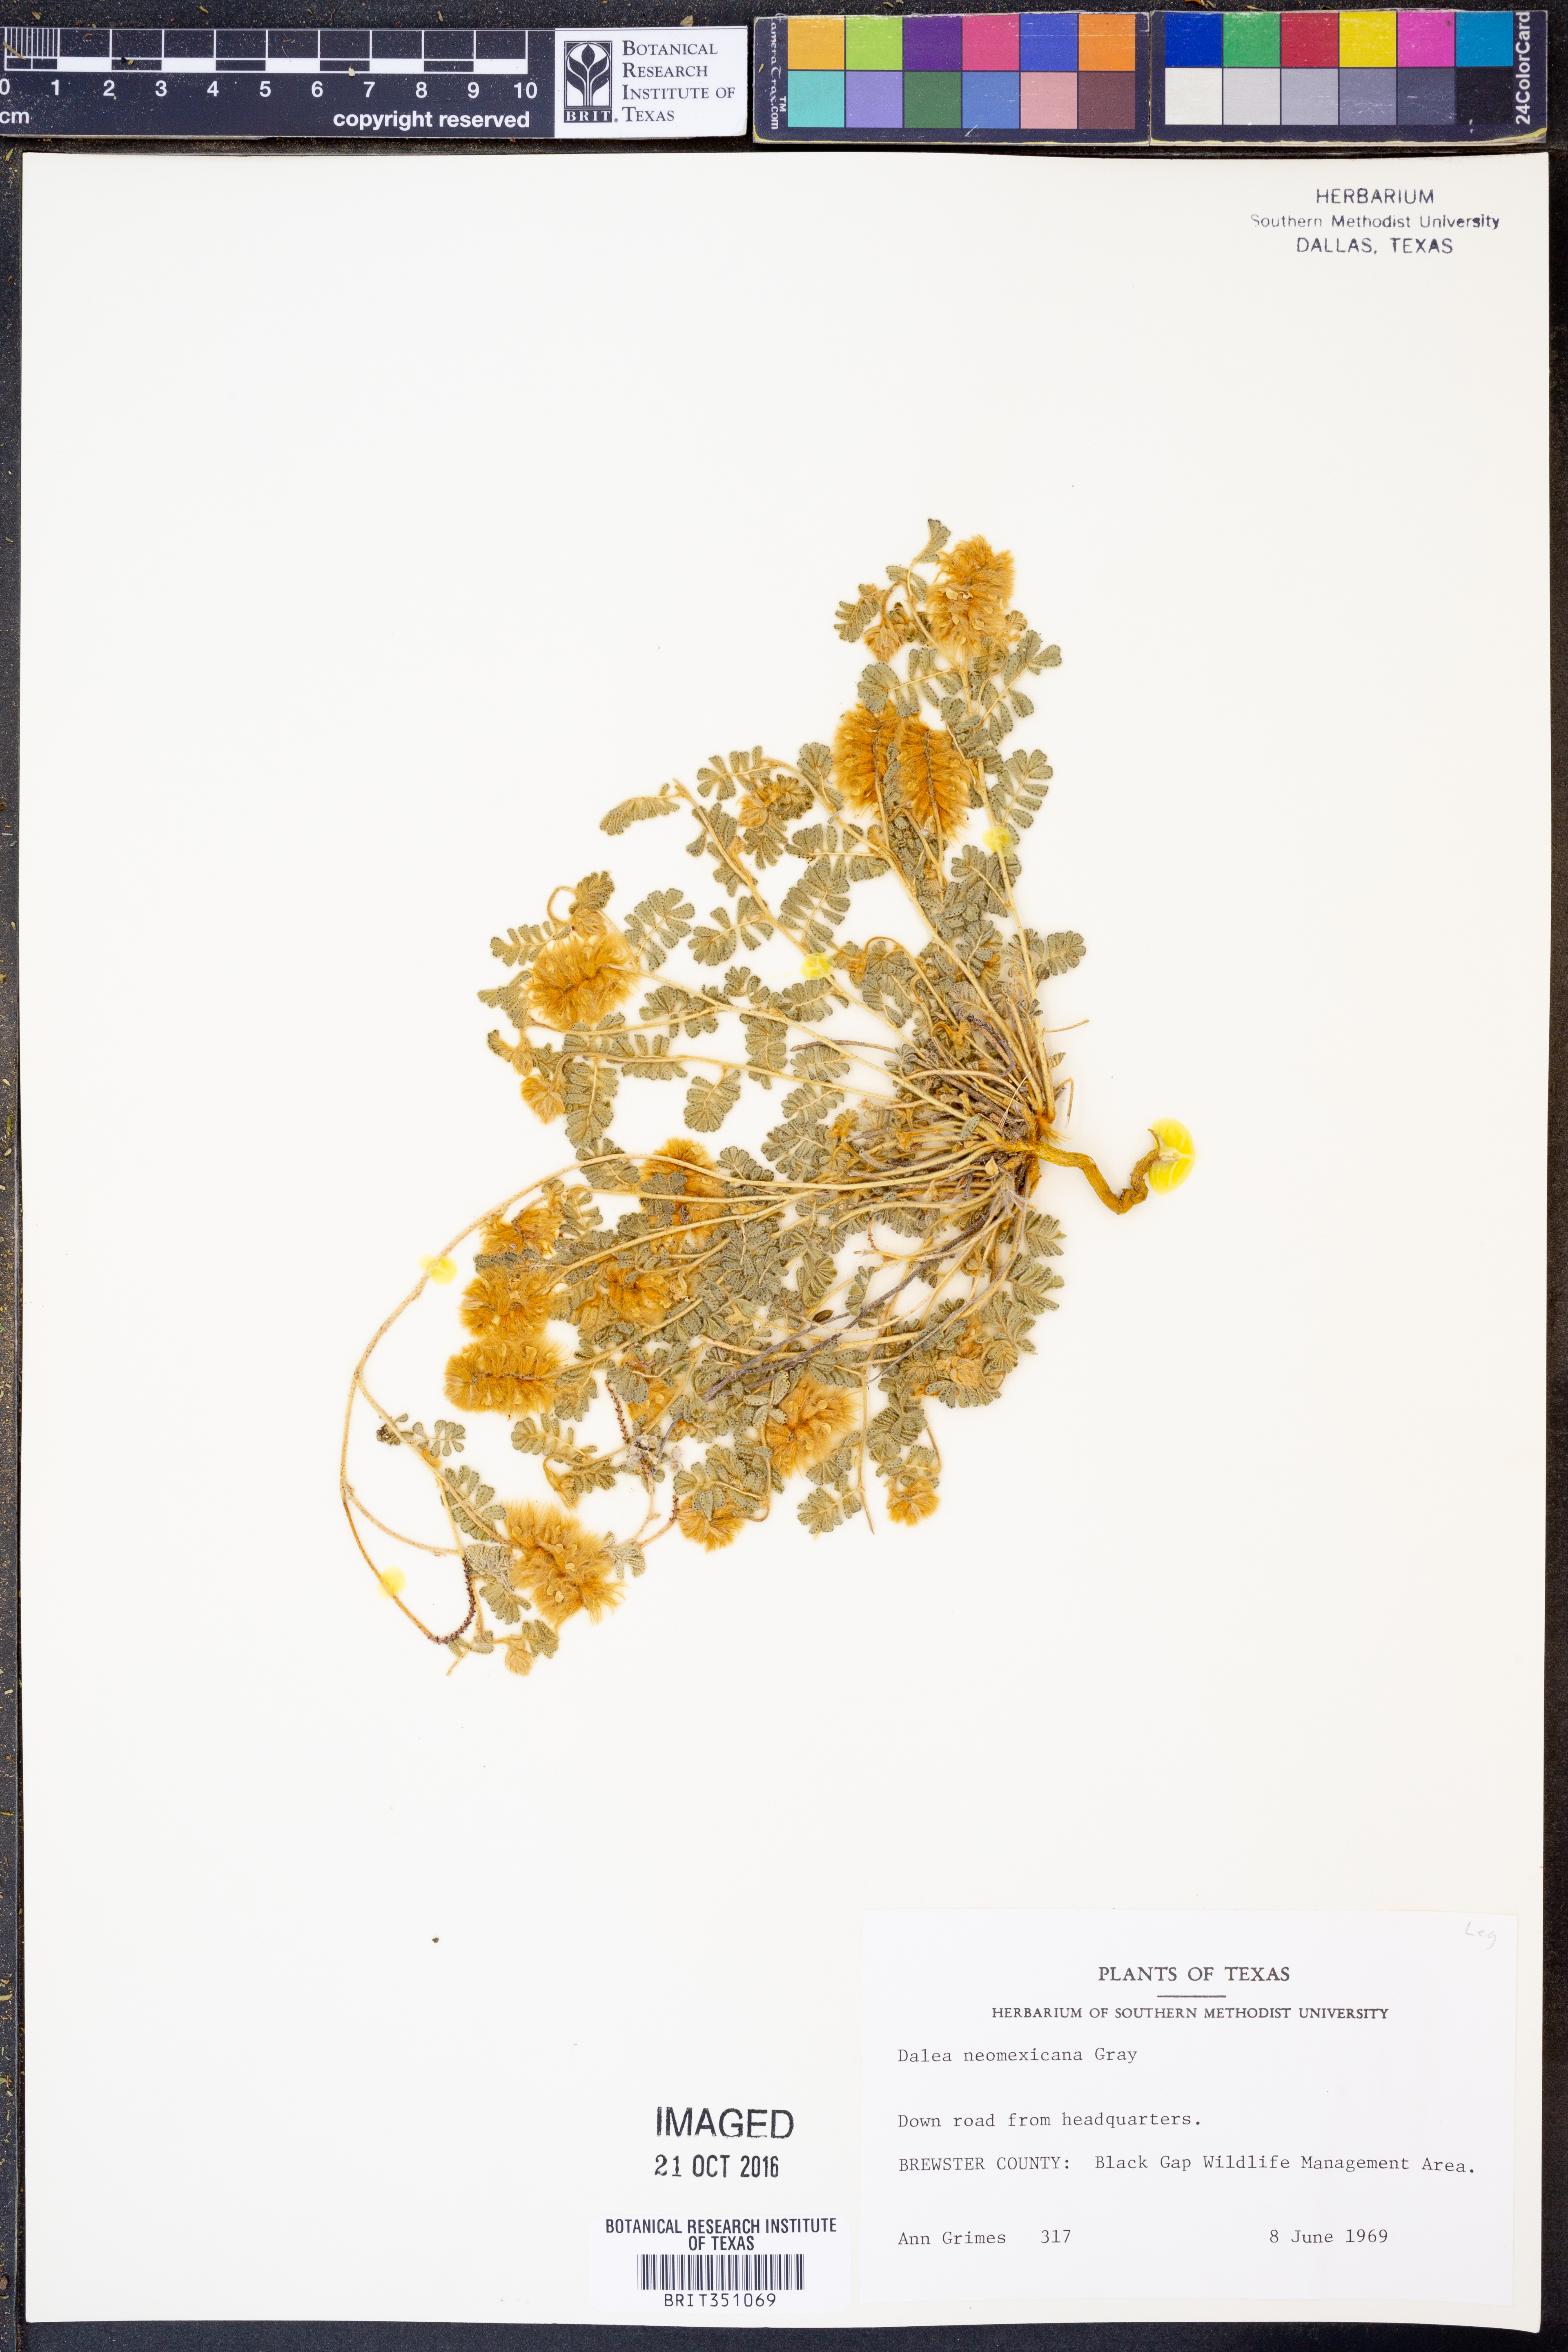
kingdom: Plantae
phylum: Tracheophyta
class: Magnoliopsida
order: Fabales
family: Fabaceae
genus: Dalea
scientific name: Dalea neomexicana
